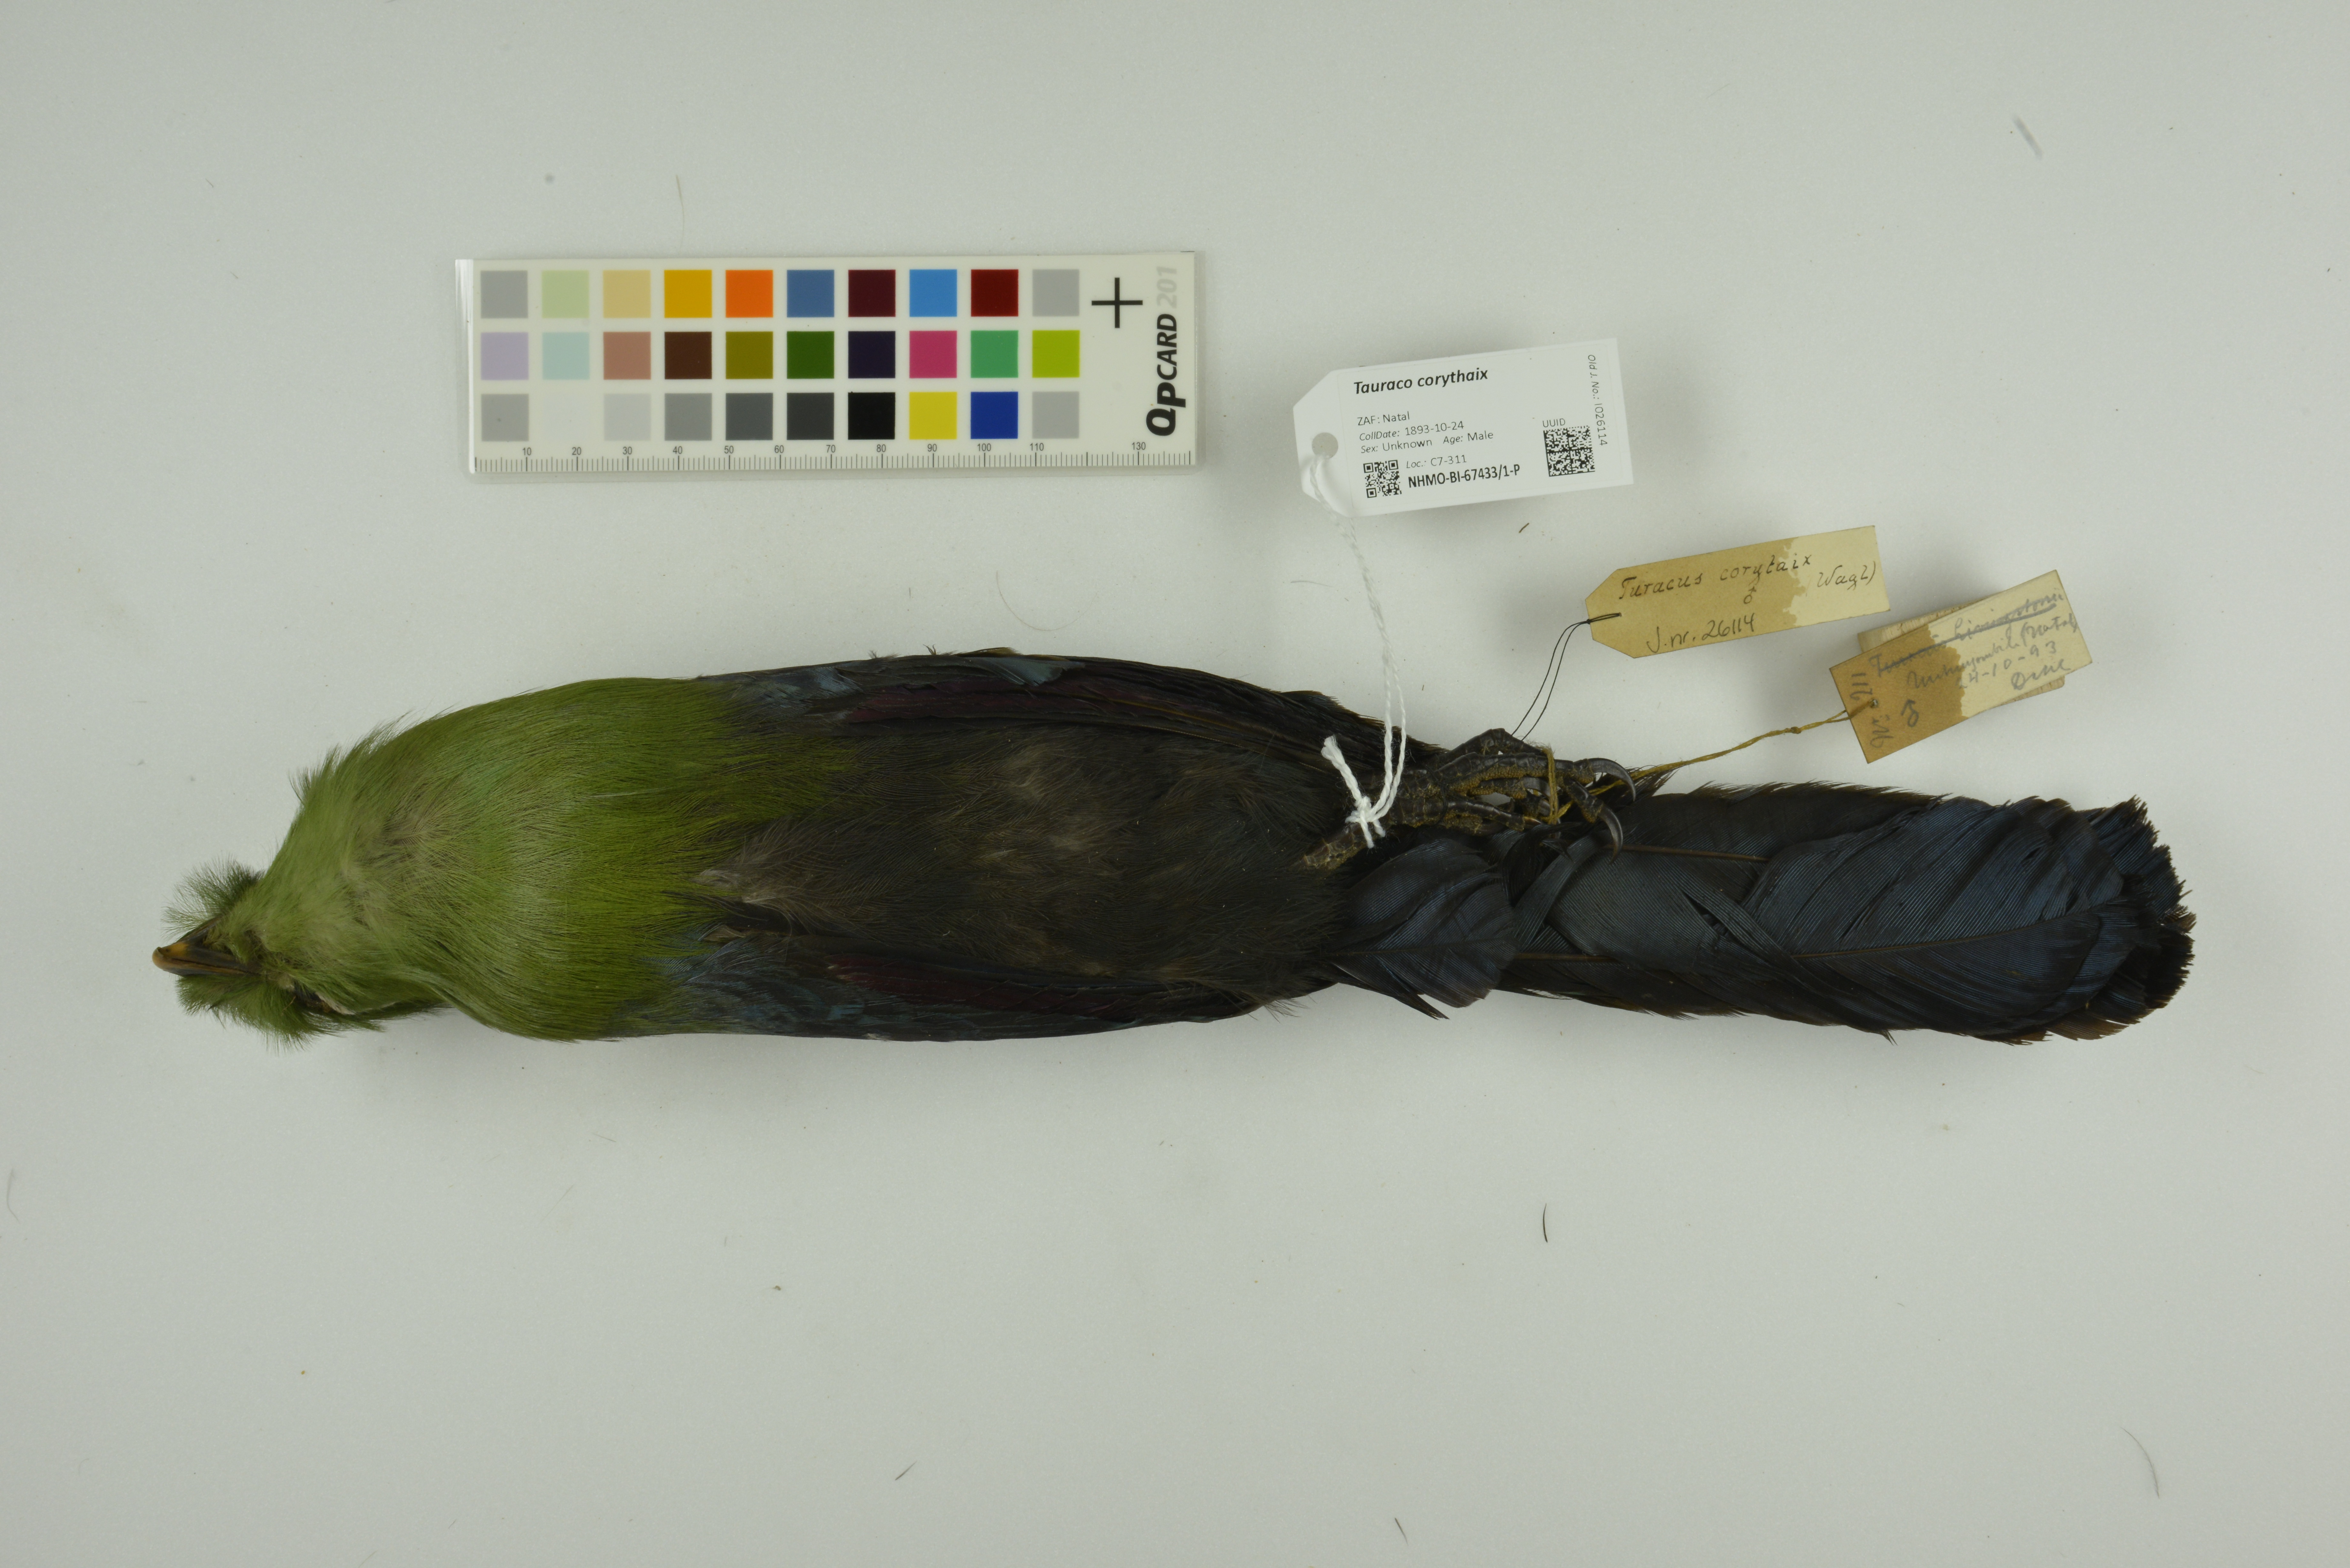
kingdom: Animalia
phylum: Chordata
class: Aves
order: Musophagiformes
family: Musophagidae
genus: Tauraco
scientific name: Tauraco corythaix
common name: Knysna turaco
